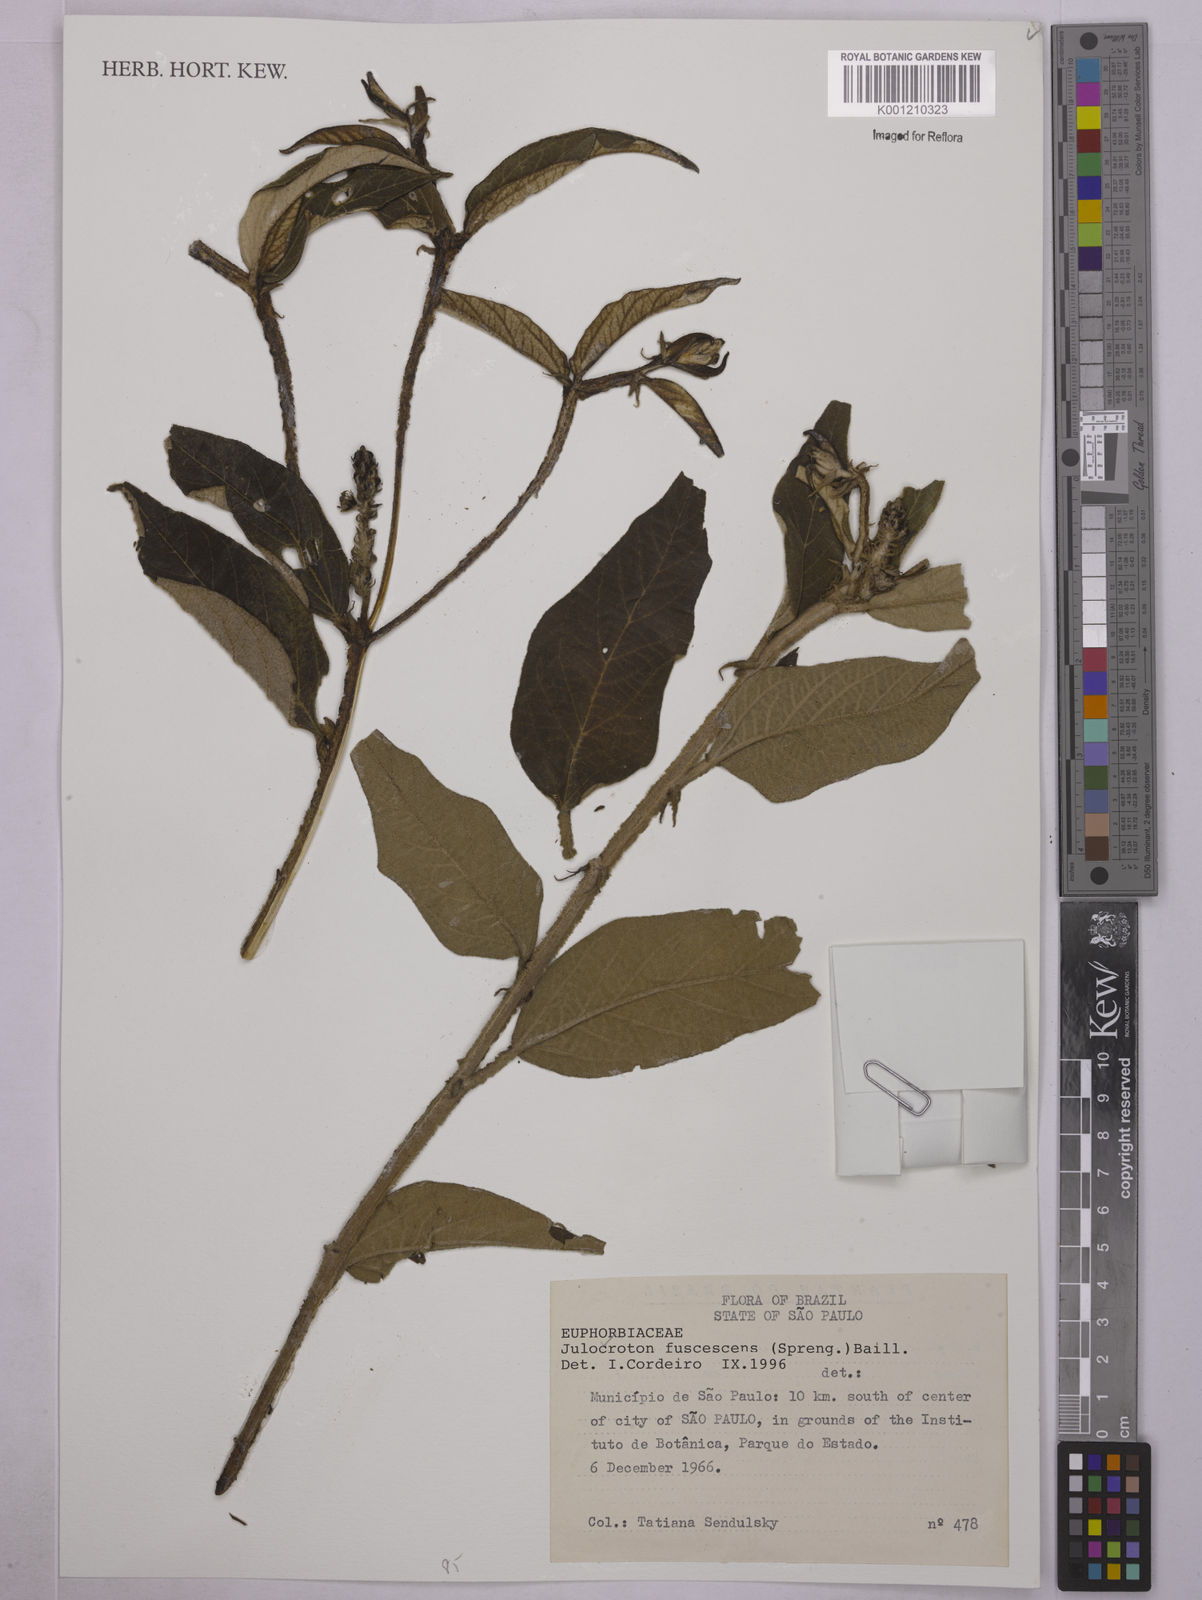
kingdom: Plantae
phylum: Tracheophyta
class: Magnoliopsida
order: Malpighiales
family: Euphorbiaceae
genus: Croton
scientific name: Croton gnaphaloides
